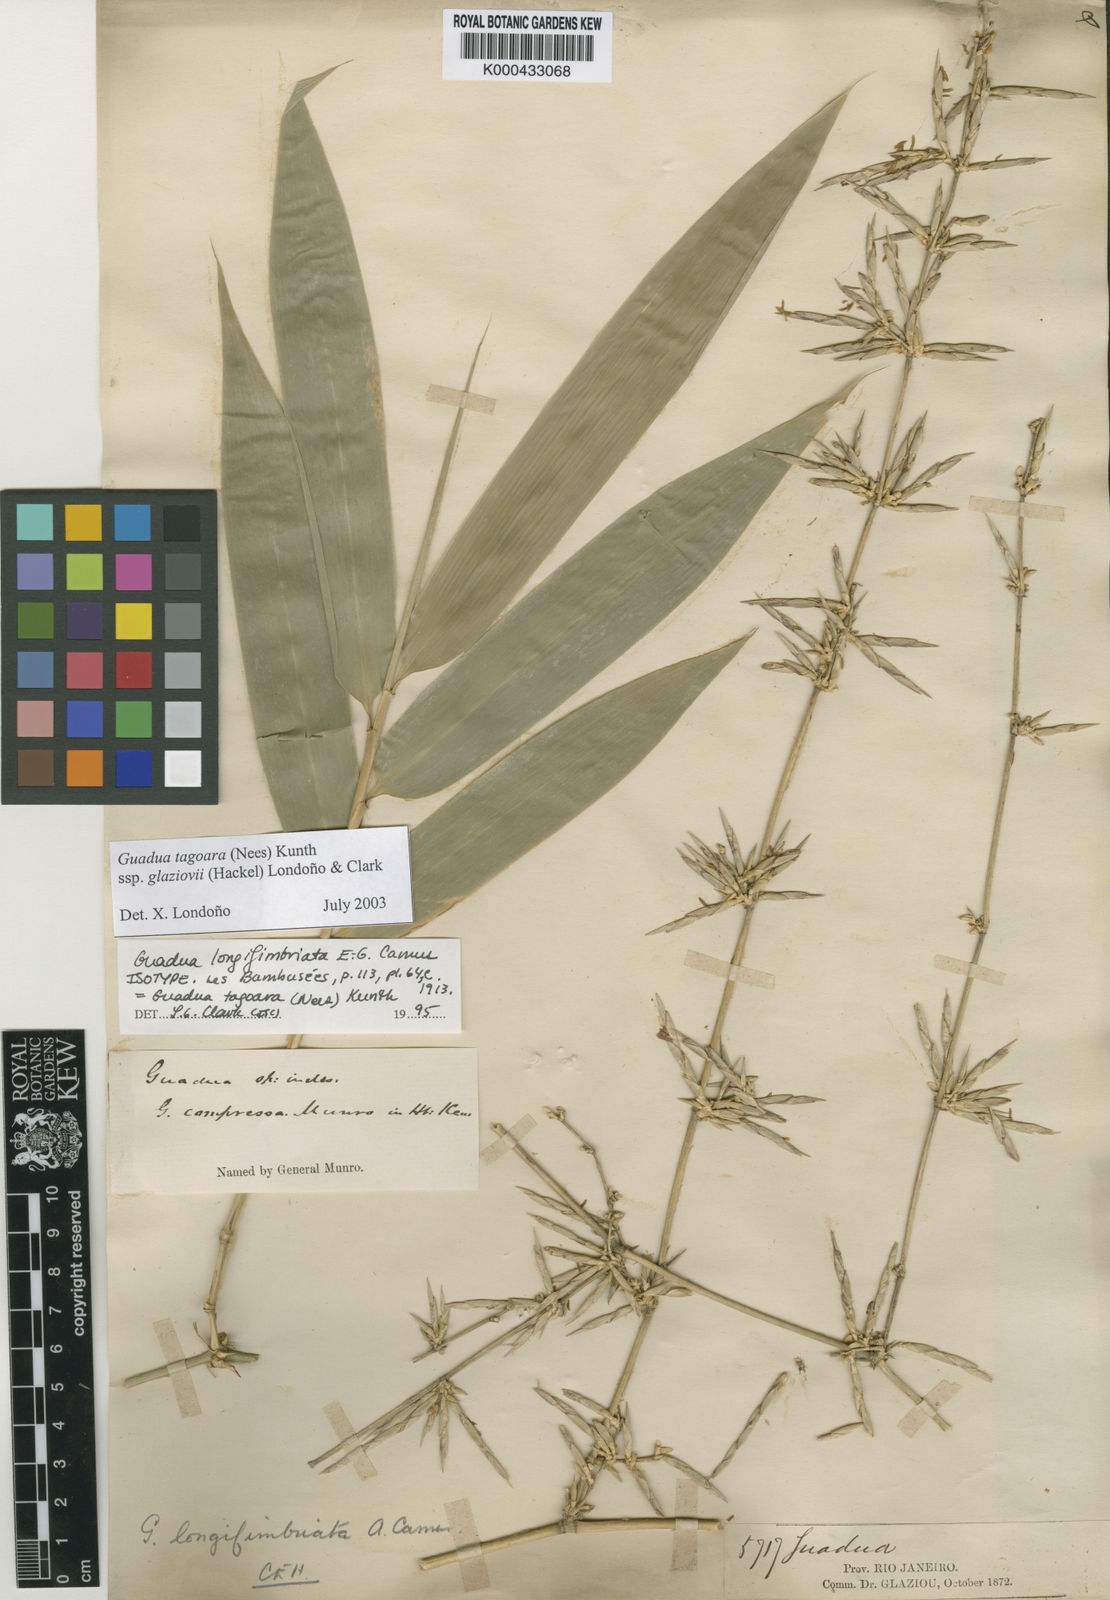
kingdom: Plantae
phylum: Tracheophyta
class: Liliopsida
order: Poales
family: Poaceae
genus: Guadua
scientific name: Guadua tagoara
